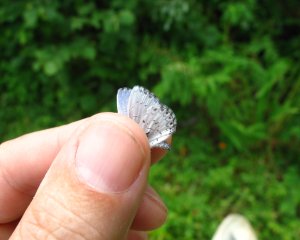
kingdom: Animalia
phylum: Arthropoda
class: Insecta
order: Lepidoptera
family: Lycaenidae
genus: Cyaniris
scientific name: Cyaniris neglecta
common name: Summer Azure
